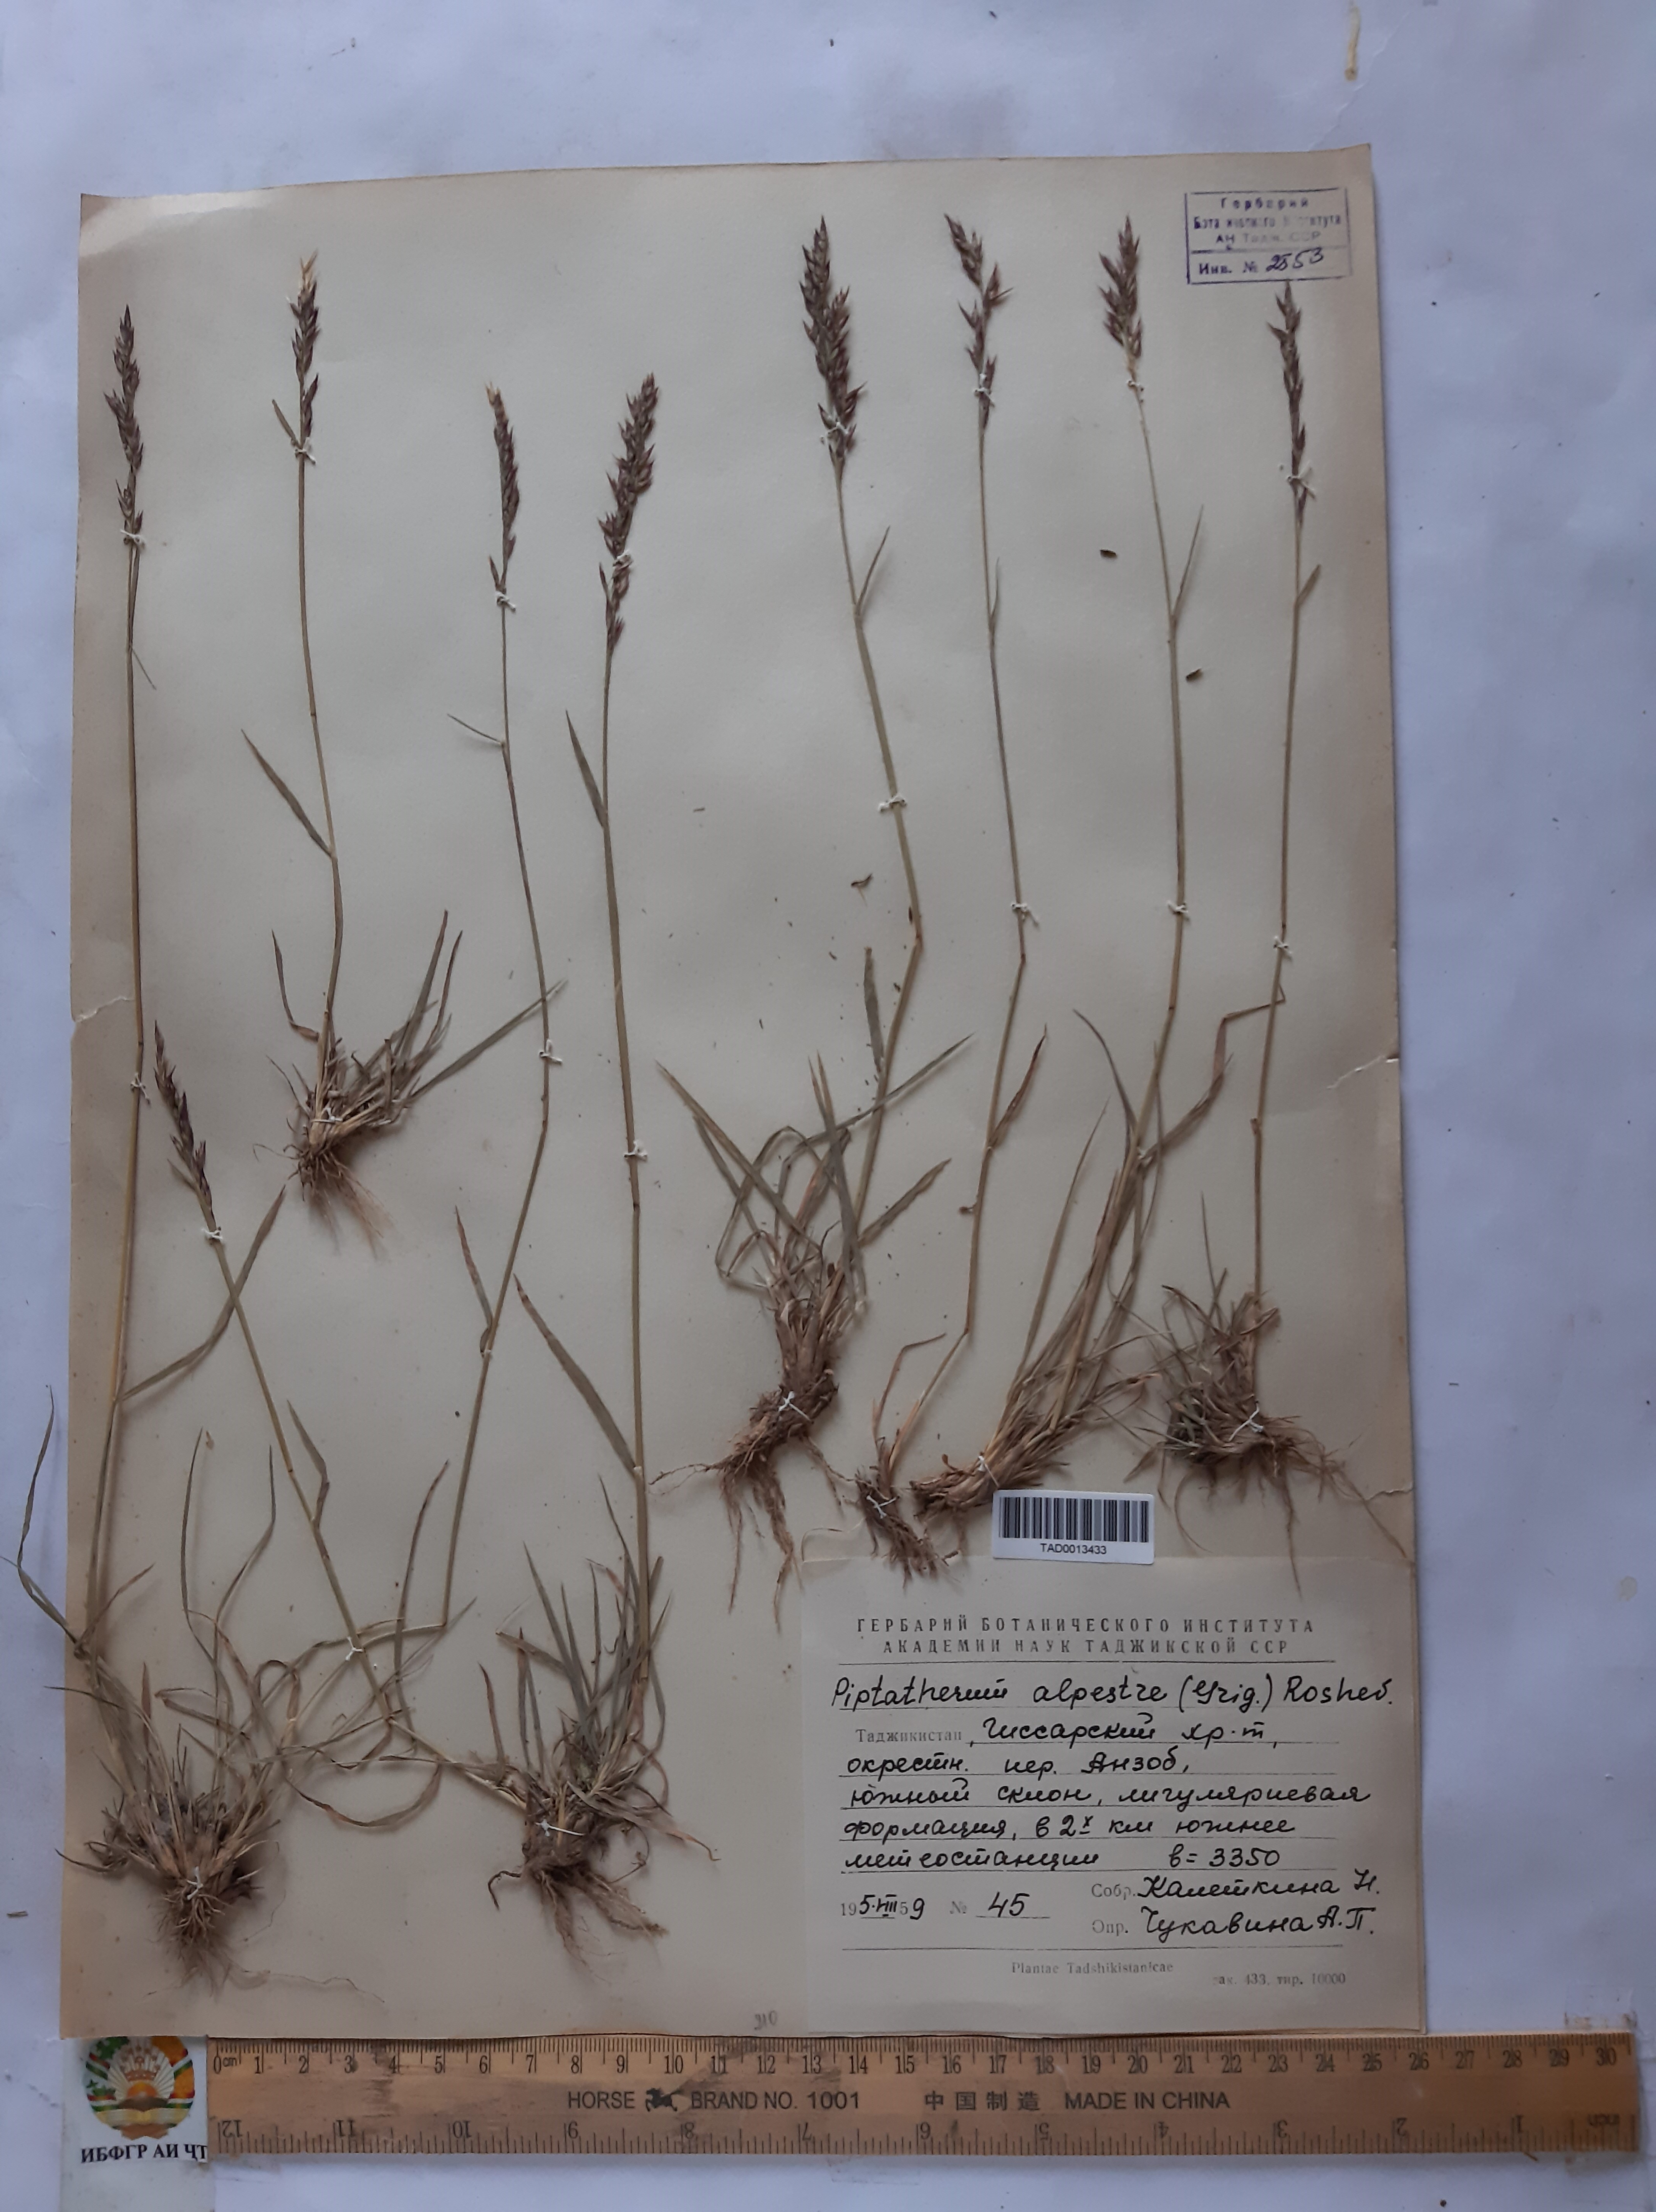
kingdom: Plantae
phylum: Tracheophyta
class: Liliopsida
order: Poales
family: Poaceae
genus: Piptatherum
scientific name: Piptatherum alpestre
